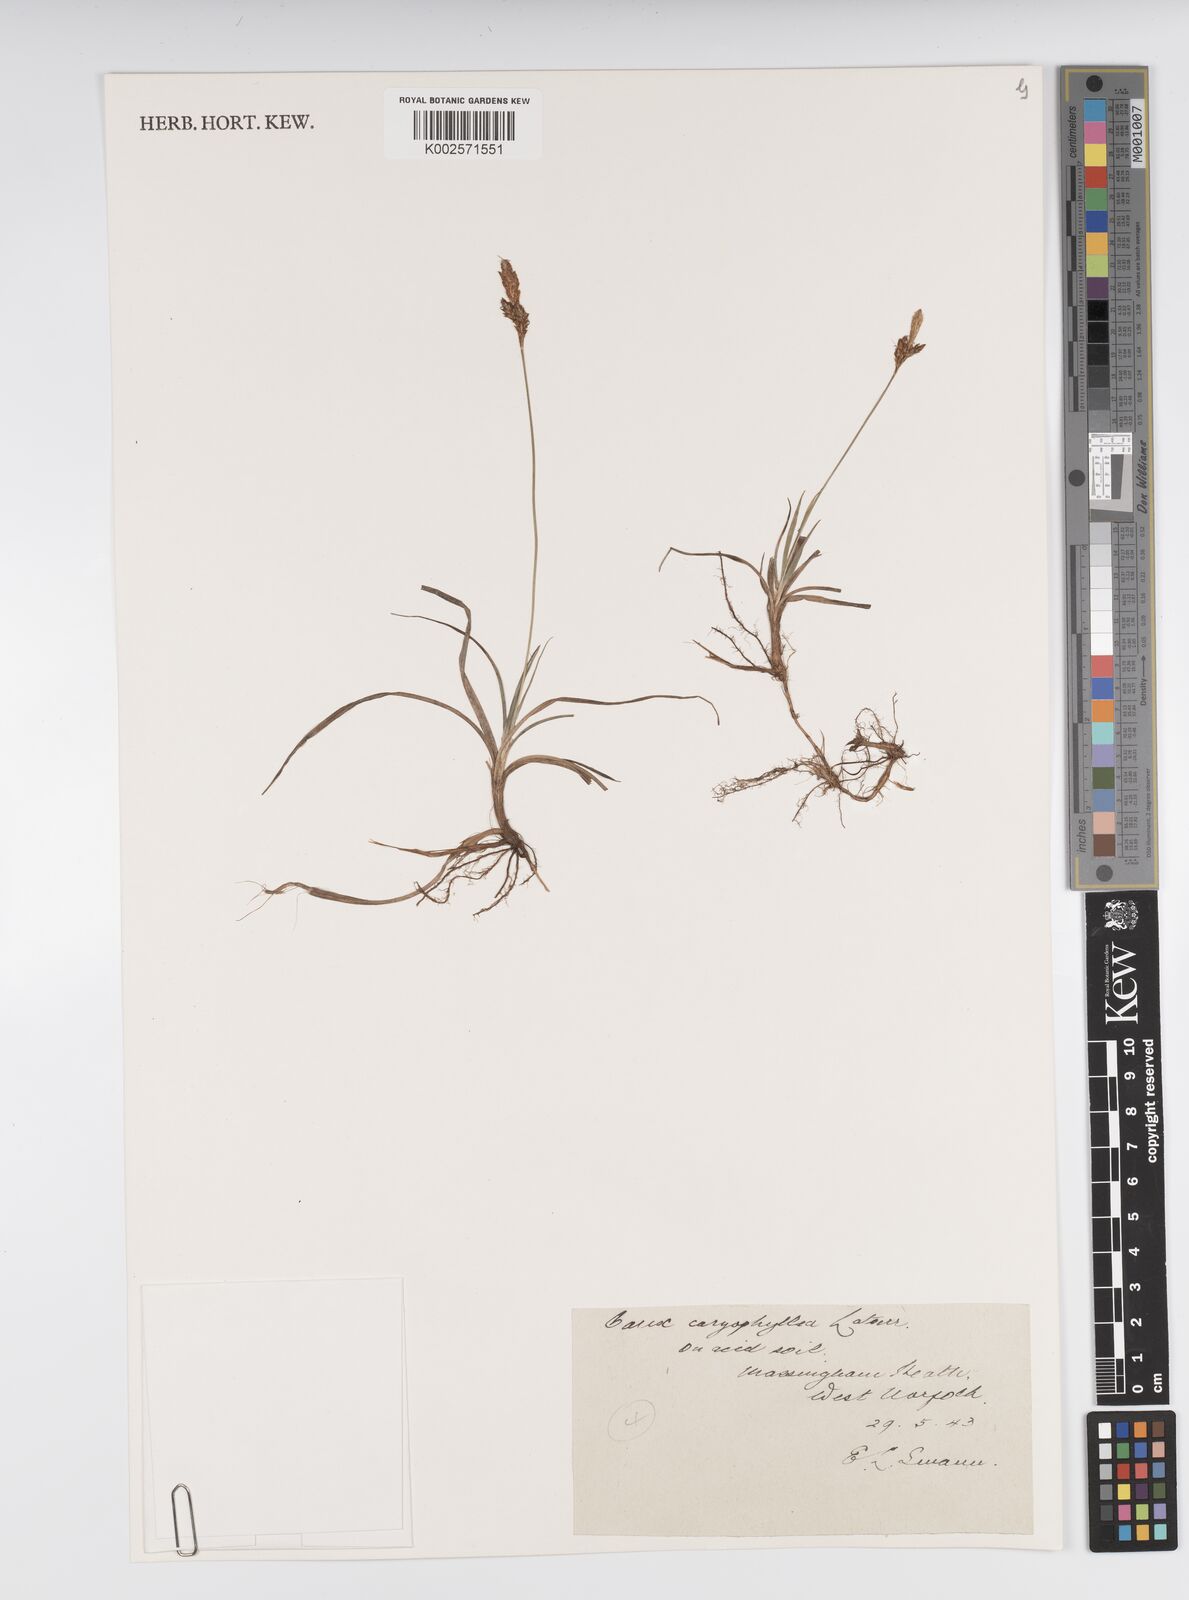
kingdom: Plantae
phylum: Tracheophyta
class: Liliopsida
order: Poales
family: Cyperaceae
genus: Carex
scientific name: Carex caryophyllea
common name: Spring sedge
